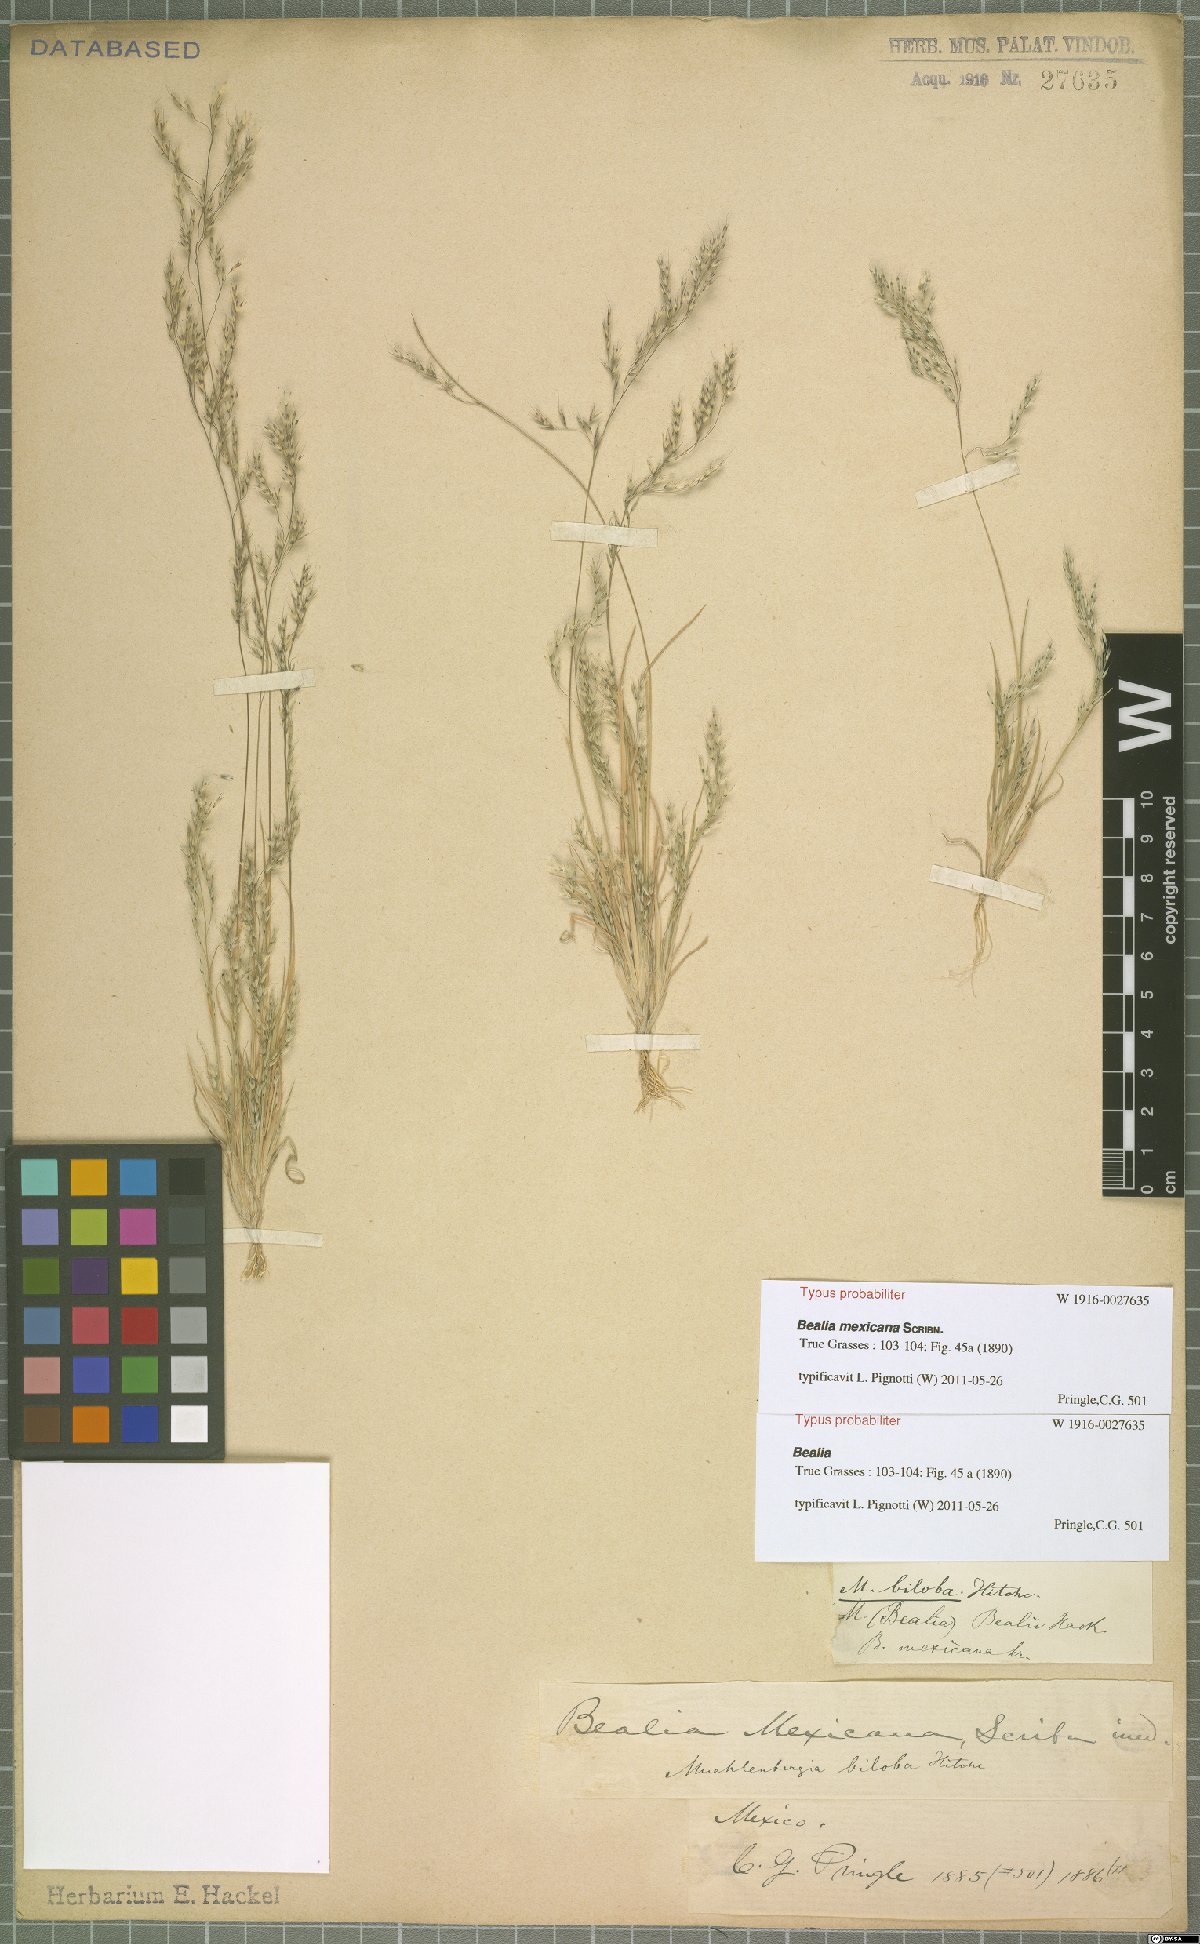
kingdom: Plantae
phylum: Tracheophyta
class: Liliopsida
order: Poales
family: Poaceae
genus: Muhlenbergia
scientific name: Muhlenbergia biloba
